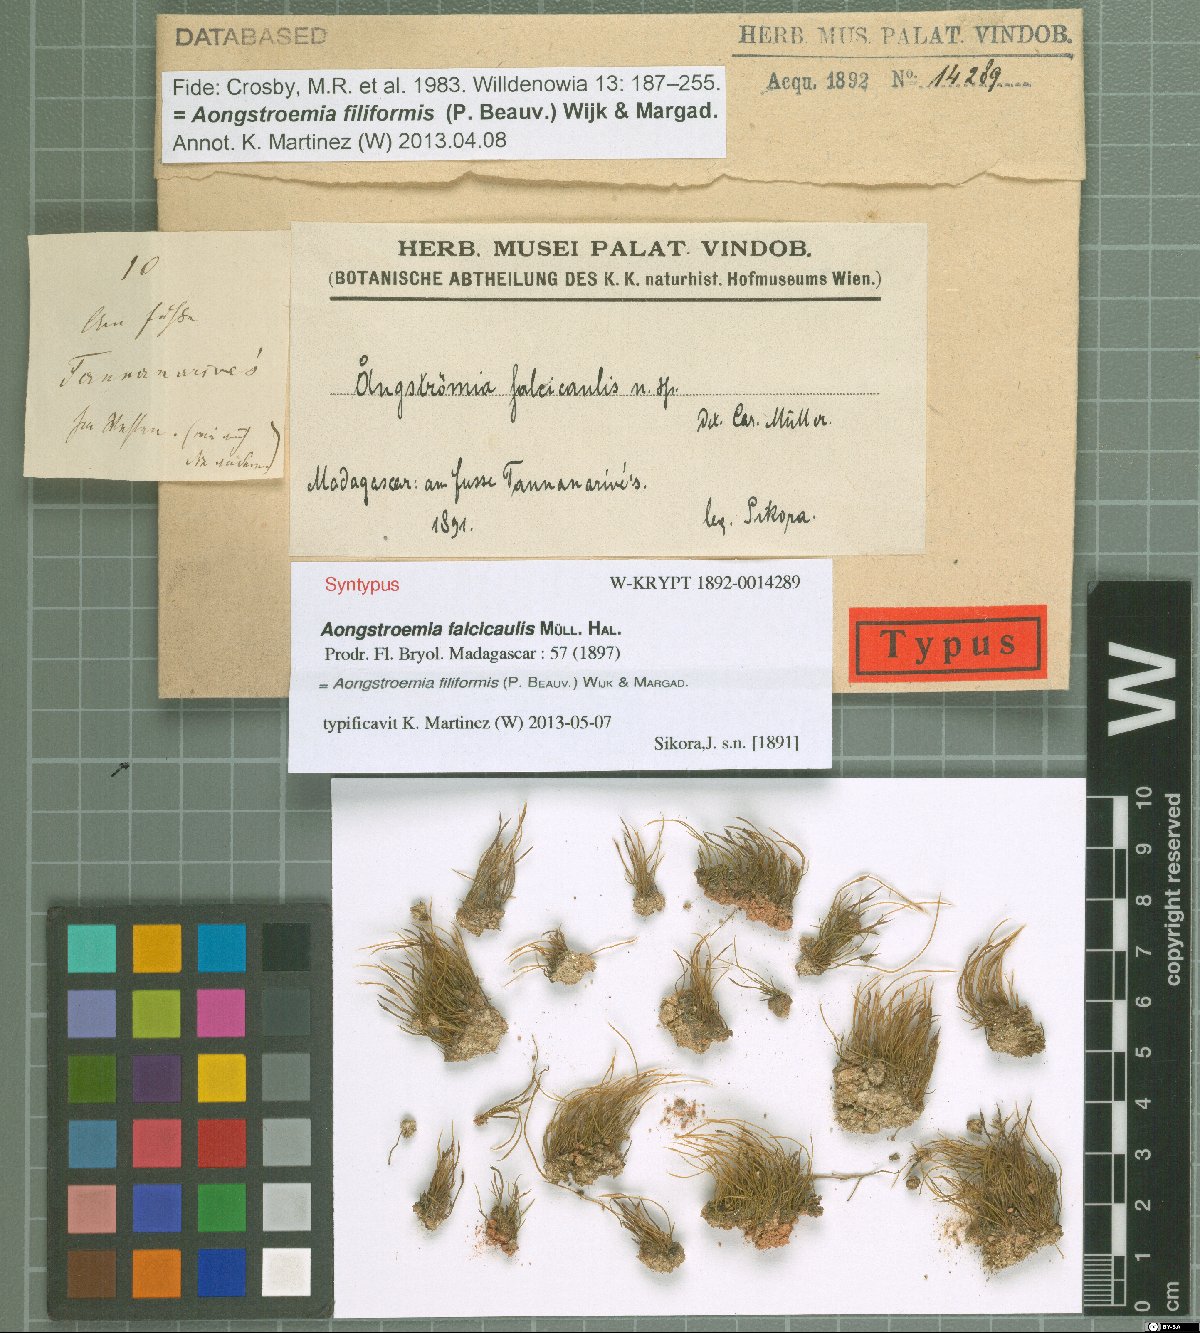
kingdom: Plantae
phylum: Bryophyta
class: Bryopsida
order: Dicranales
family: Aongstroemiaceae
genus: Aongstroemia
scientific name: Aongstroemia filiformis
